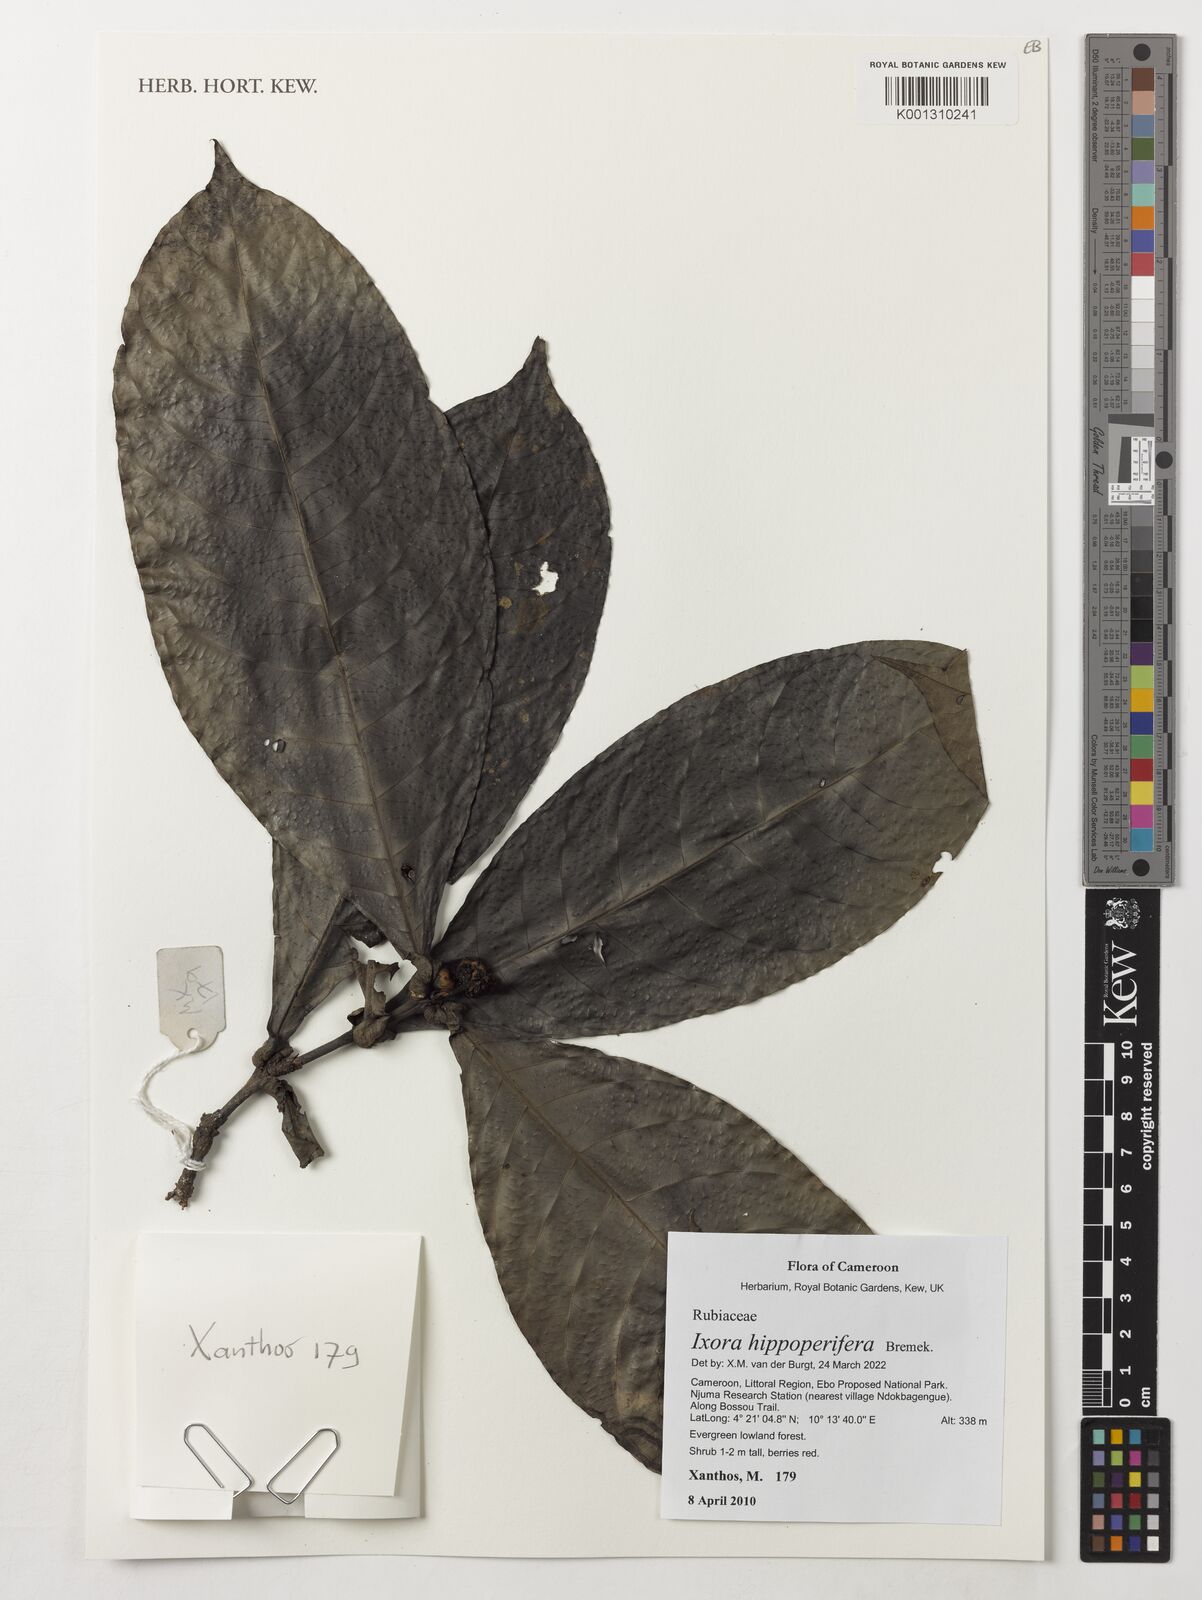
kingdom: Plantae
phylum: Tracheophyta
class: Magnoliopsida
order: Gentianales
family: Rubiaceae
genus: Ixora
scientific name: Ixora hippoperifera
